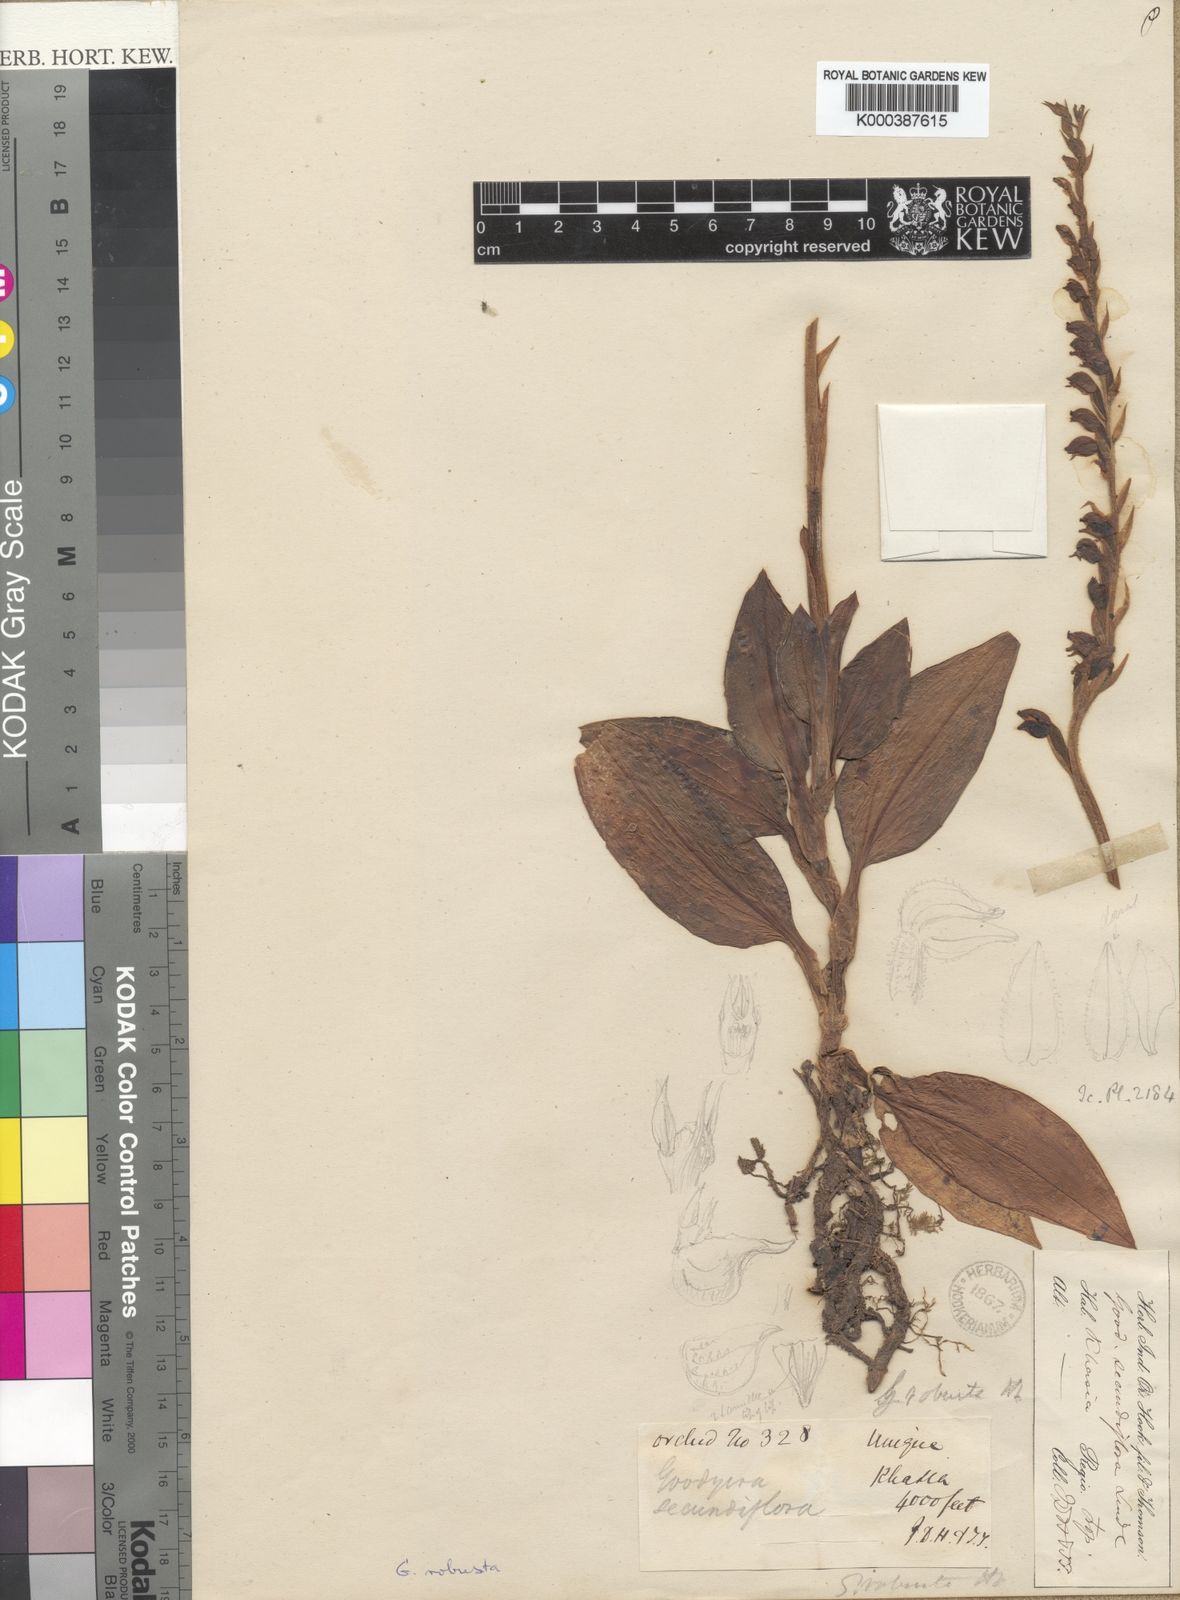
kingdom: Plantae
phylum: Tracheophyta
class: Liliopsida
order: Asparagales
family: Orchidaceae
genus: Goodyera
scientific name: Goodyera robusta
